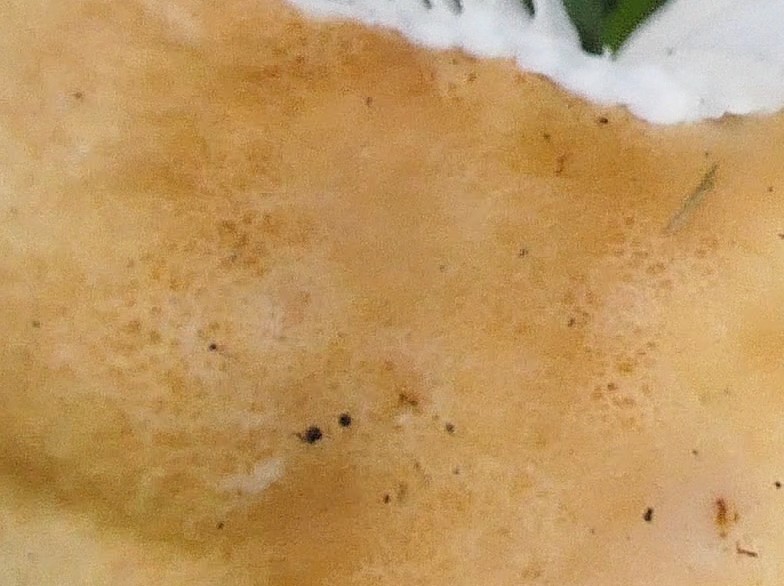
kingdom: Fungi
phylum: Basidiomycota
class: Agaricomycetes
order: Russulales
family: Russulaceae
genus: Russula
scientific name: Russula roseoaurantia
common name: kornet skørhat
